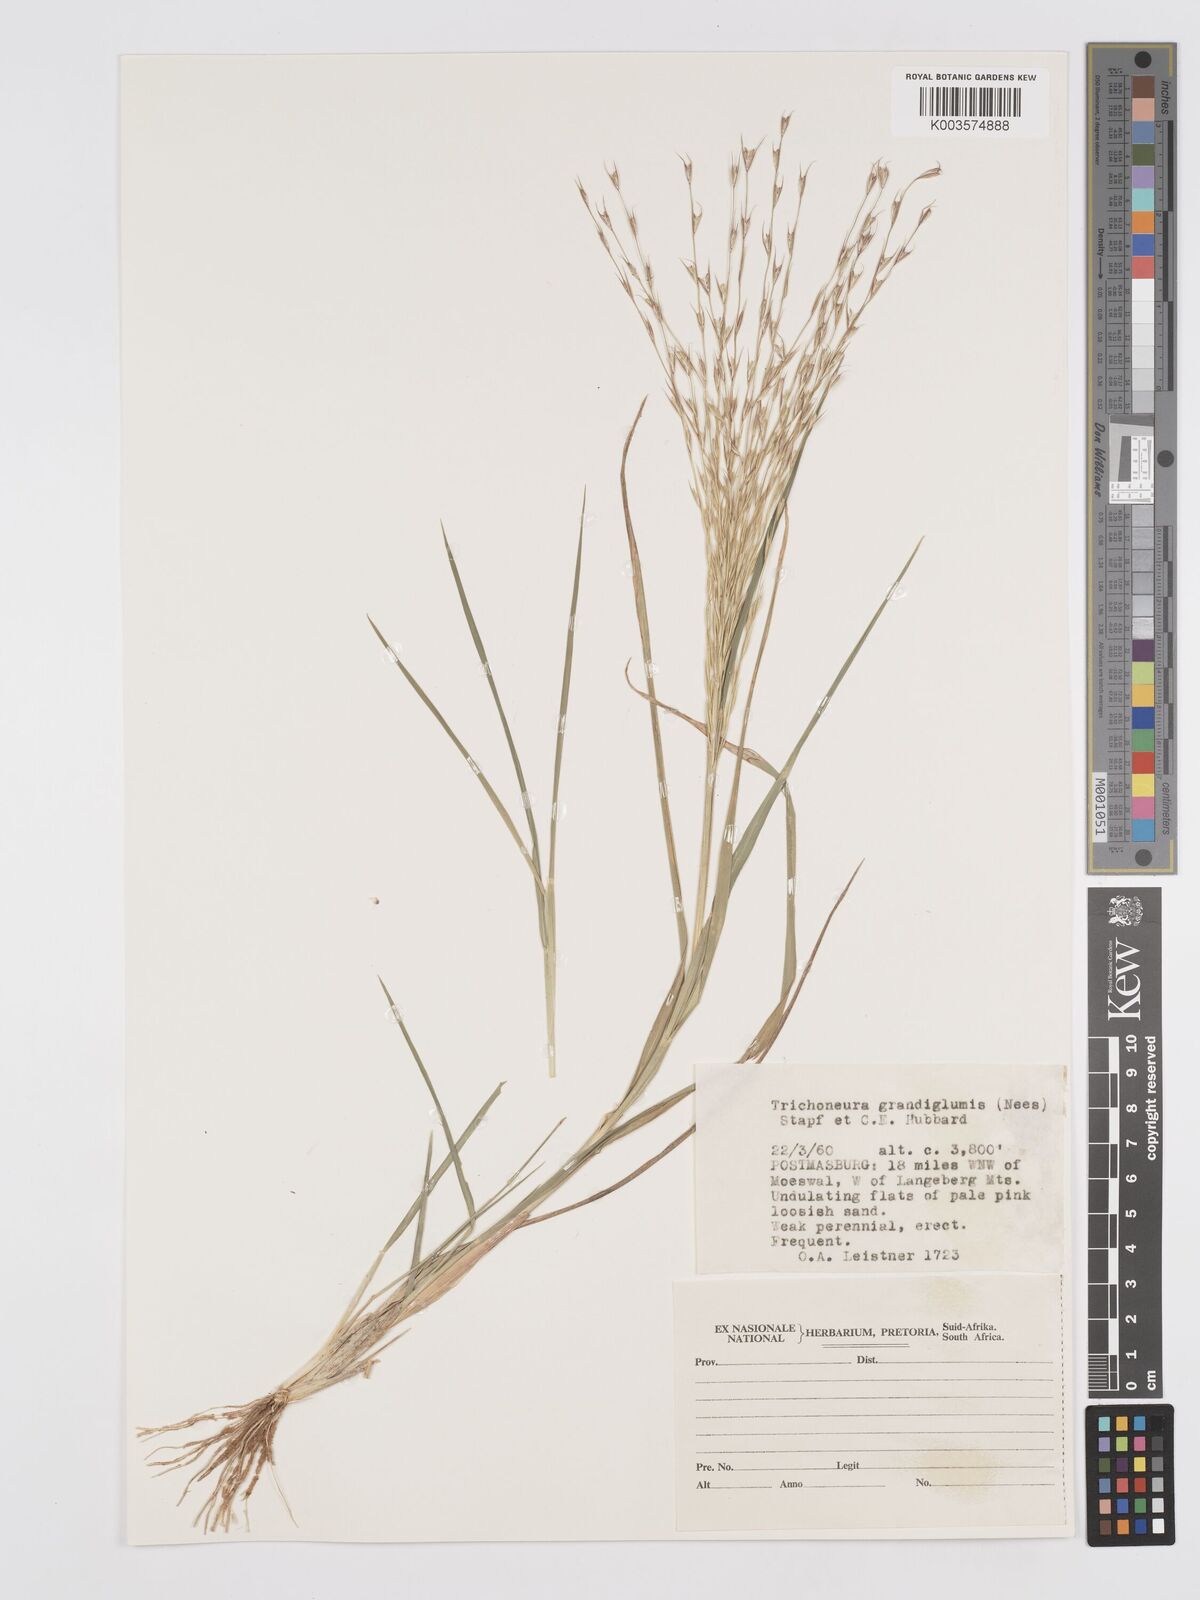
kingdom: Plantae
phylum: Tracheophyta
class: Liliopsida
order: Poales
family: Poaceae
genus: Trichoneura
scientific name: Trichoneura grandiglumis
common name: Rolling grass
